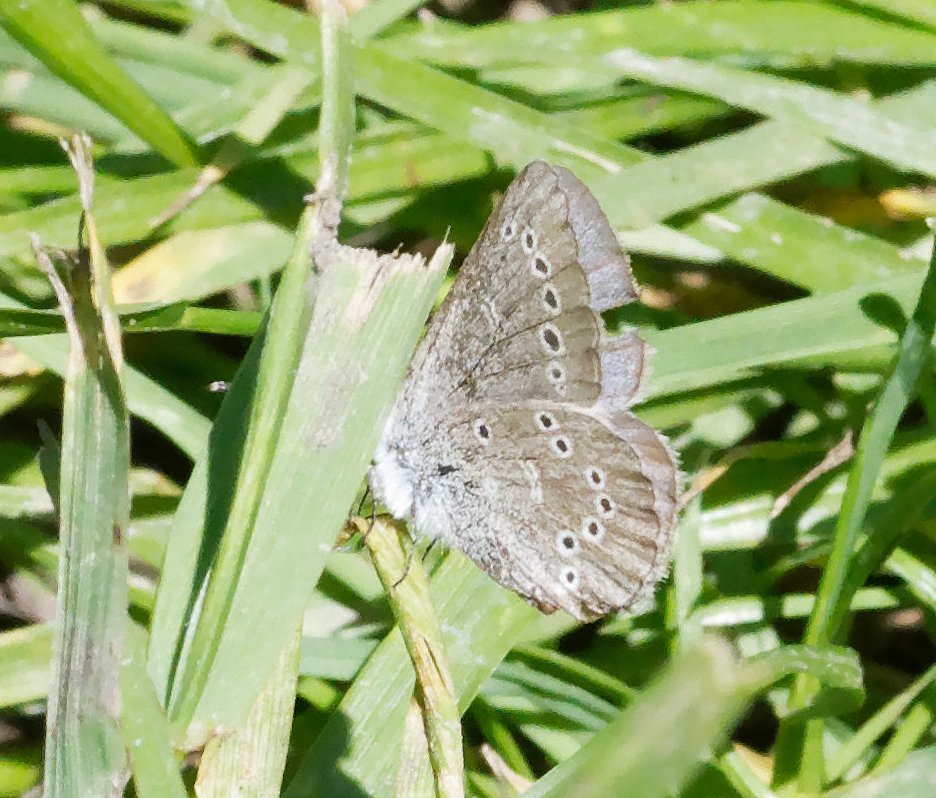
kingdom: Animalia
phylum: Arthropoda
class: Insecta
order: Lepidoptera
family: Lycaenidae
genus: Glaucopsyche
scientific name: Glaucopsyche lygdamus
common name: Silvery Blue
